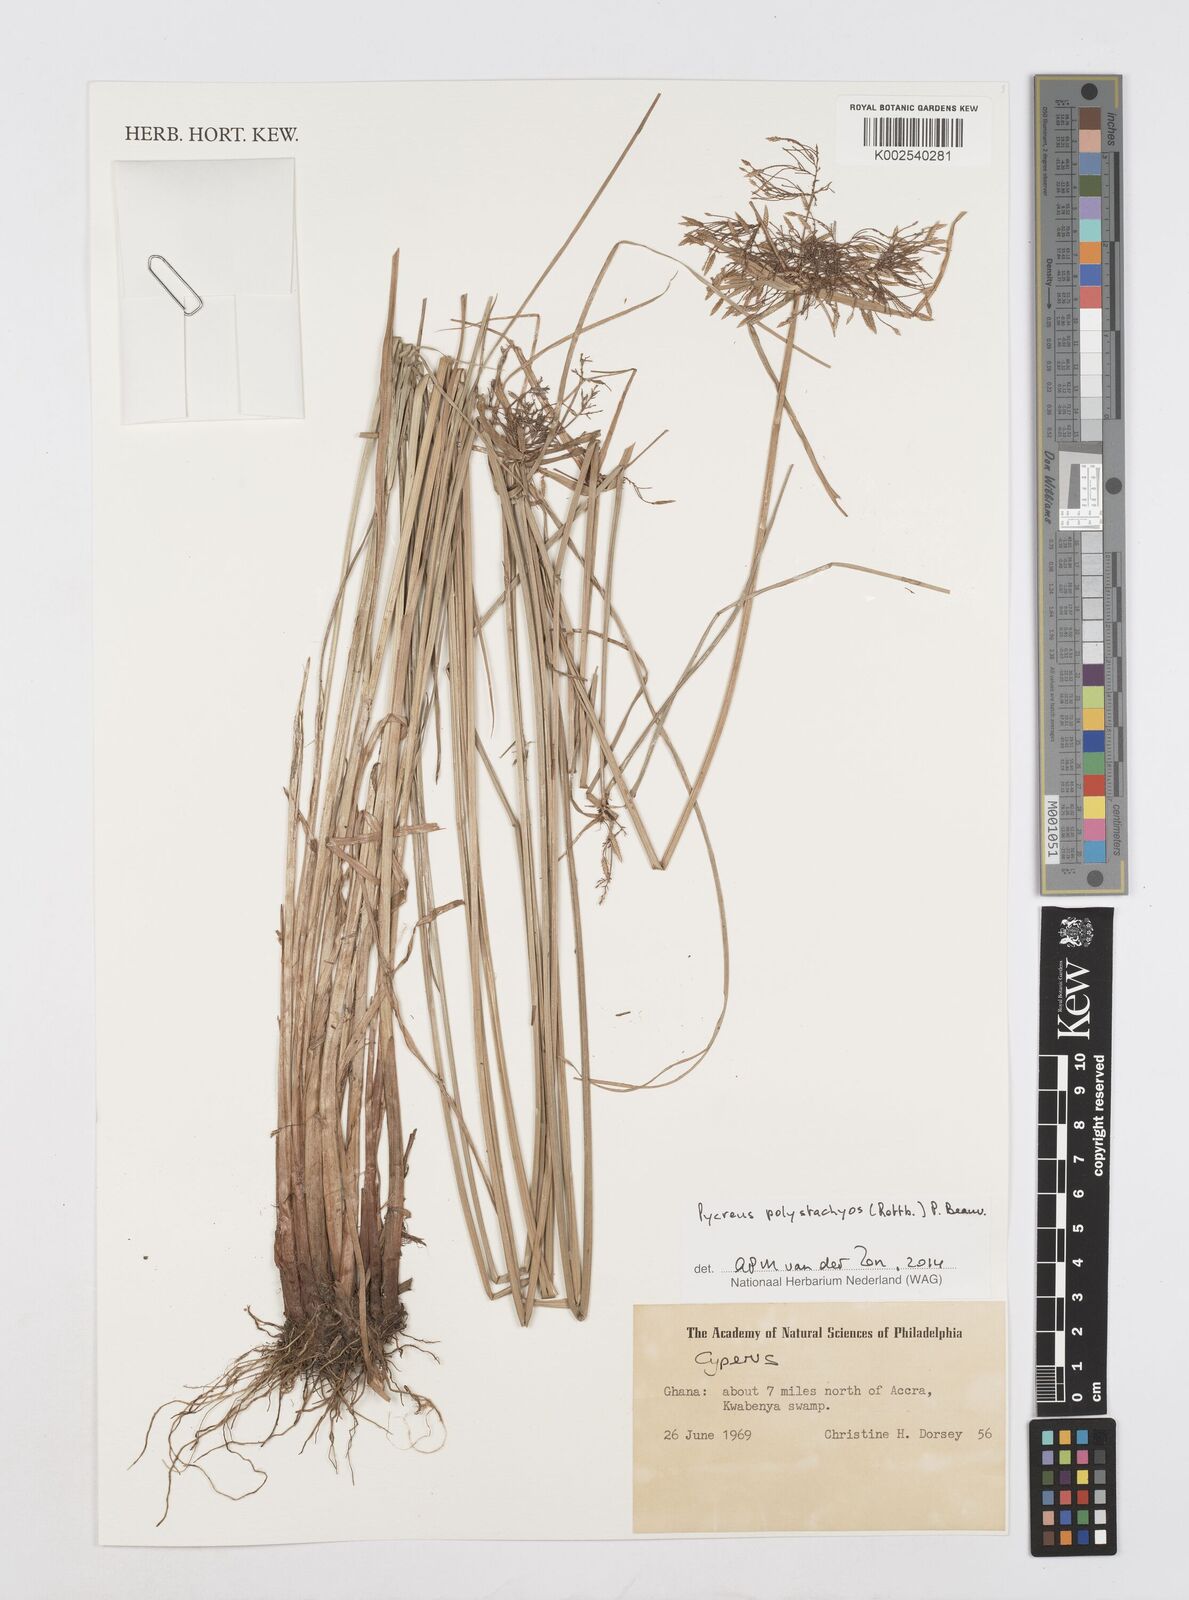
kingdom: Plantae
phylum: Tracheophyta
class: Liliopsida
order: Poales
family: Cyperaceae
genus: Cyperus
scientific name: Cyperus polystachyos
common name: Bunchy flat sedge
